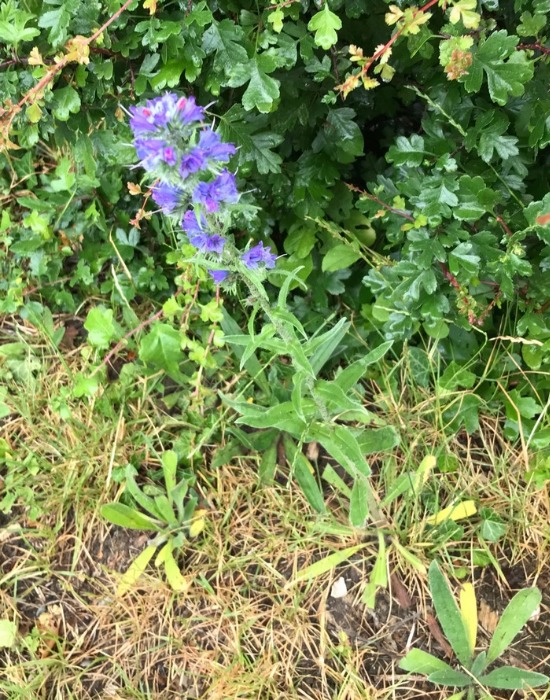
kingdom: Plantae
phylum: Tracheophyta
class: Magnoliopsida
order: Boraginales
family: Boraginaceae
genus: Echium
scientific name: Echium vulgare
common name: Slangehoved
